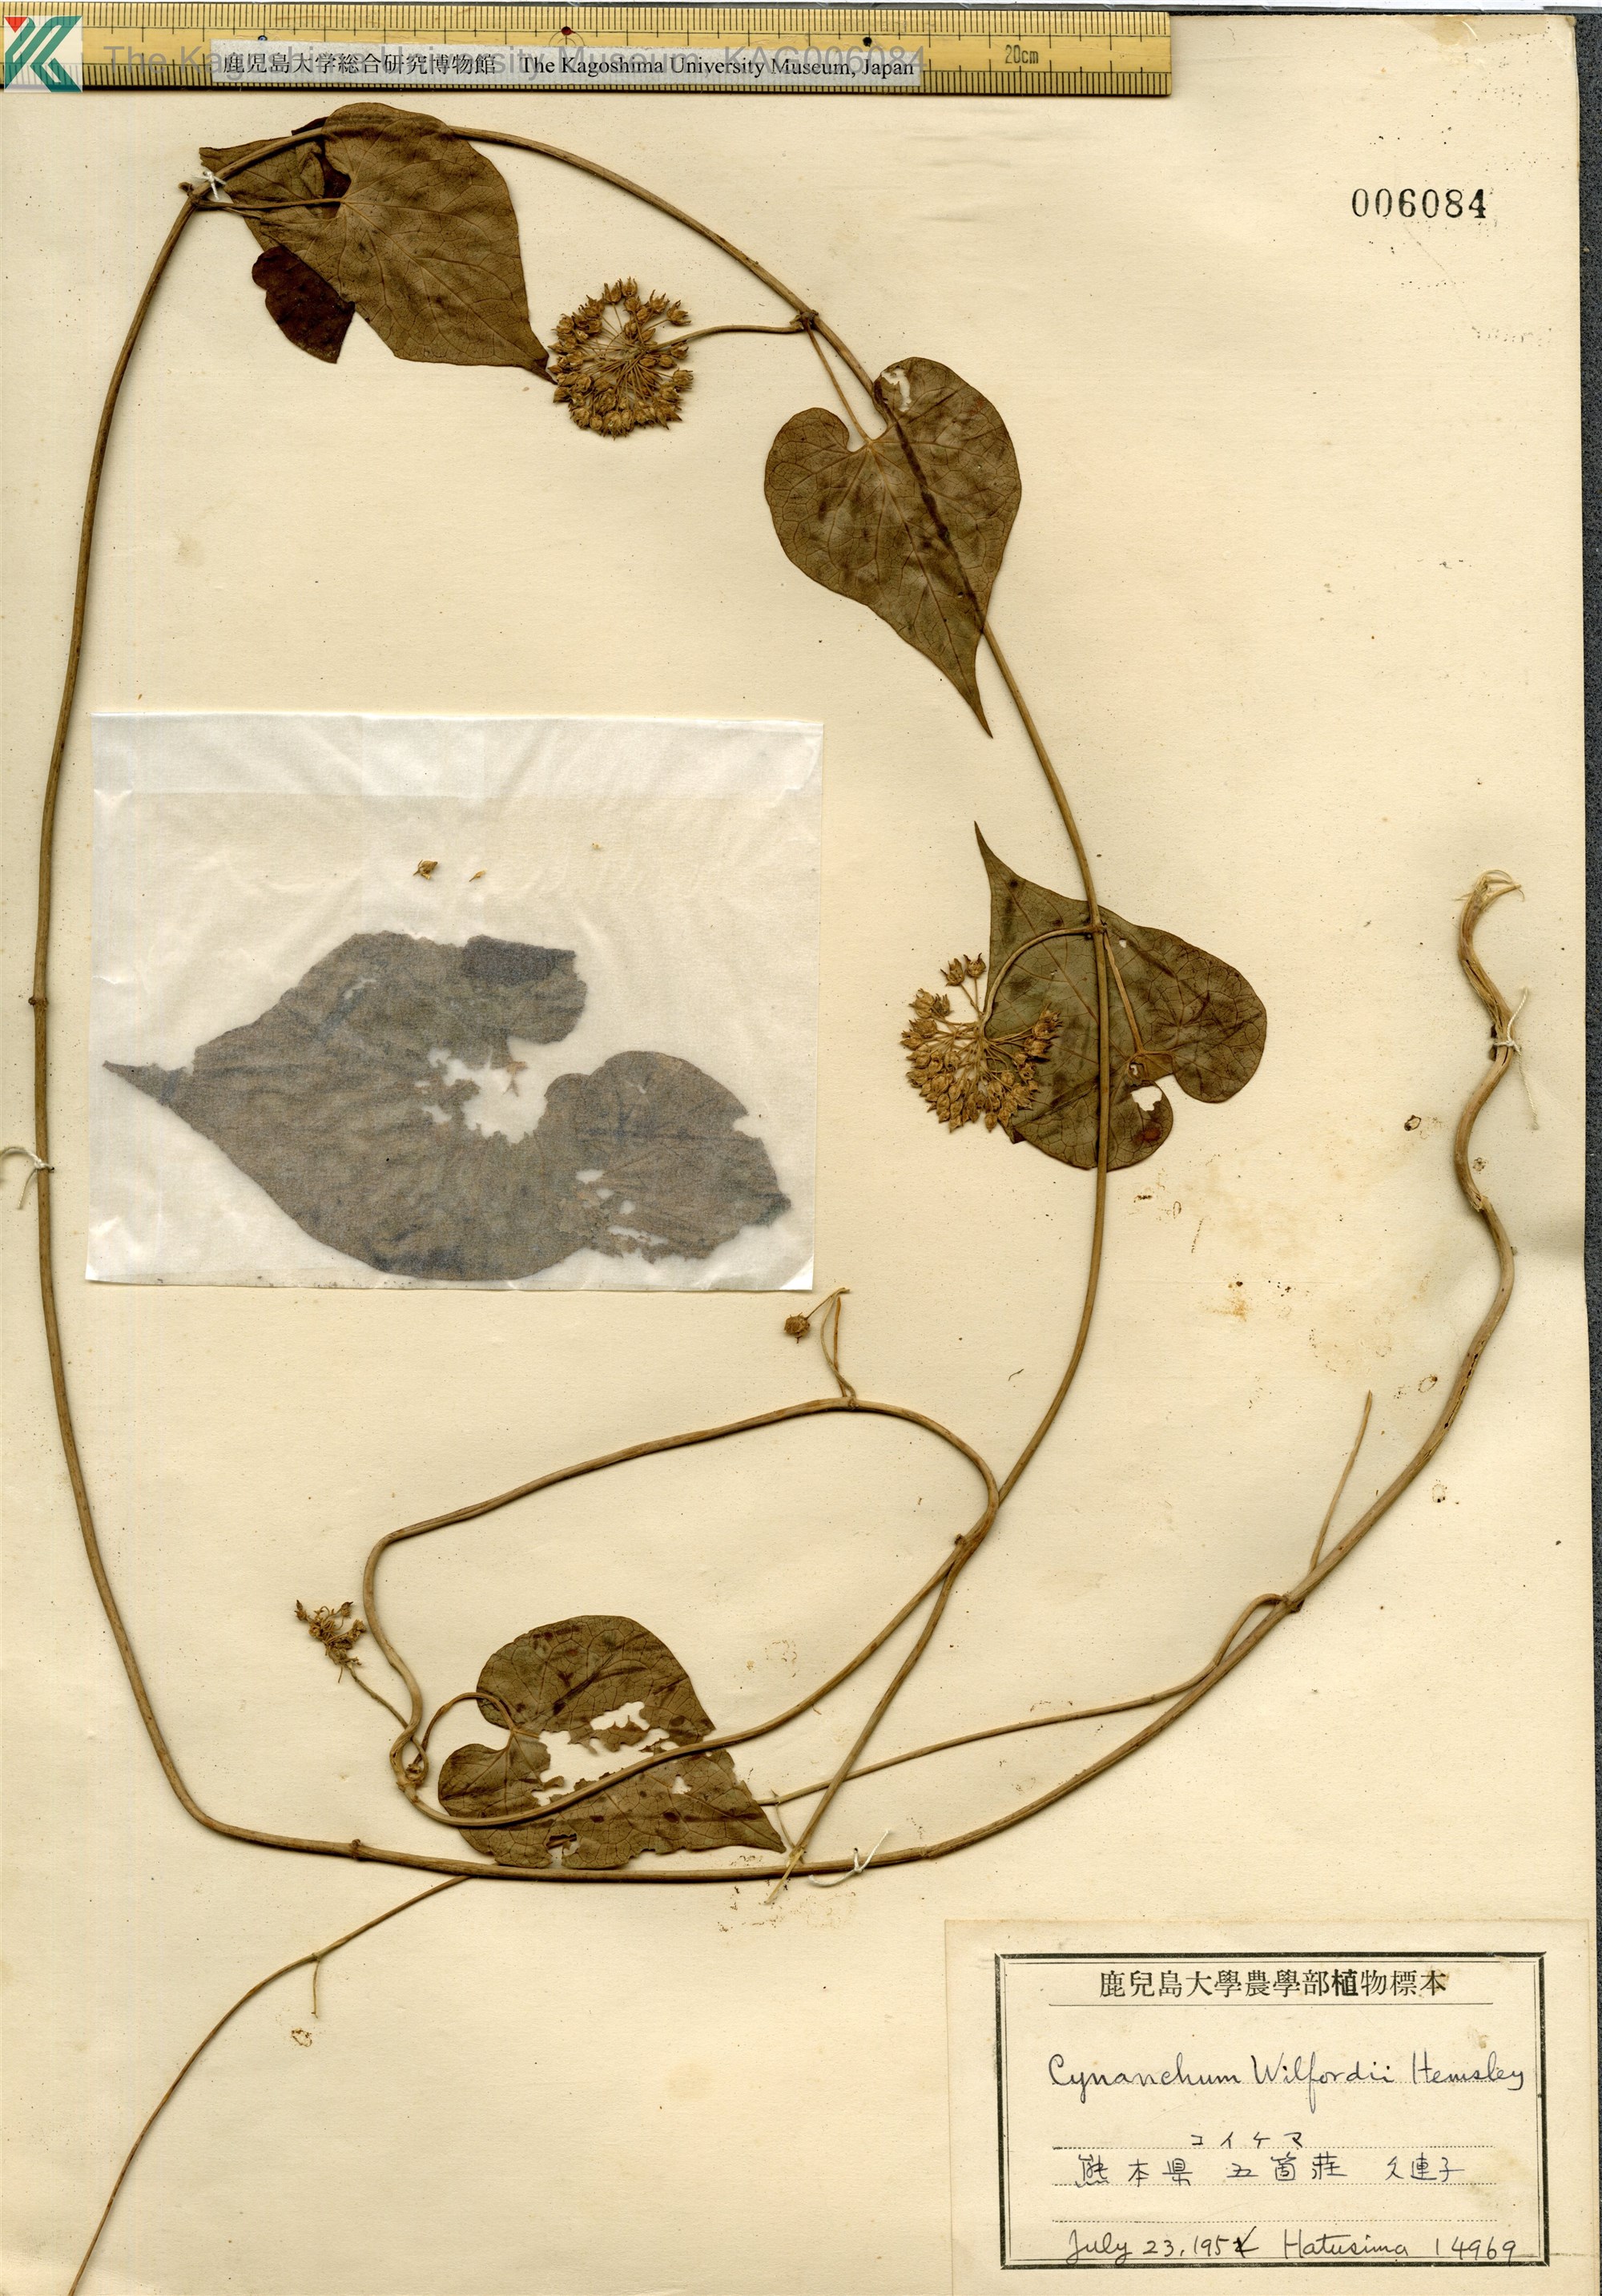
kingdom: Plantae
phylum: Tracheophyta
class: Magnoliopsida
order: Gentianales
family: Apocynaceae
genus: Cynanchum
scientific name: Cynanchum wilfordii
